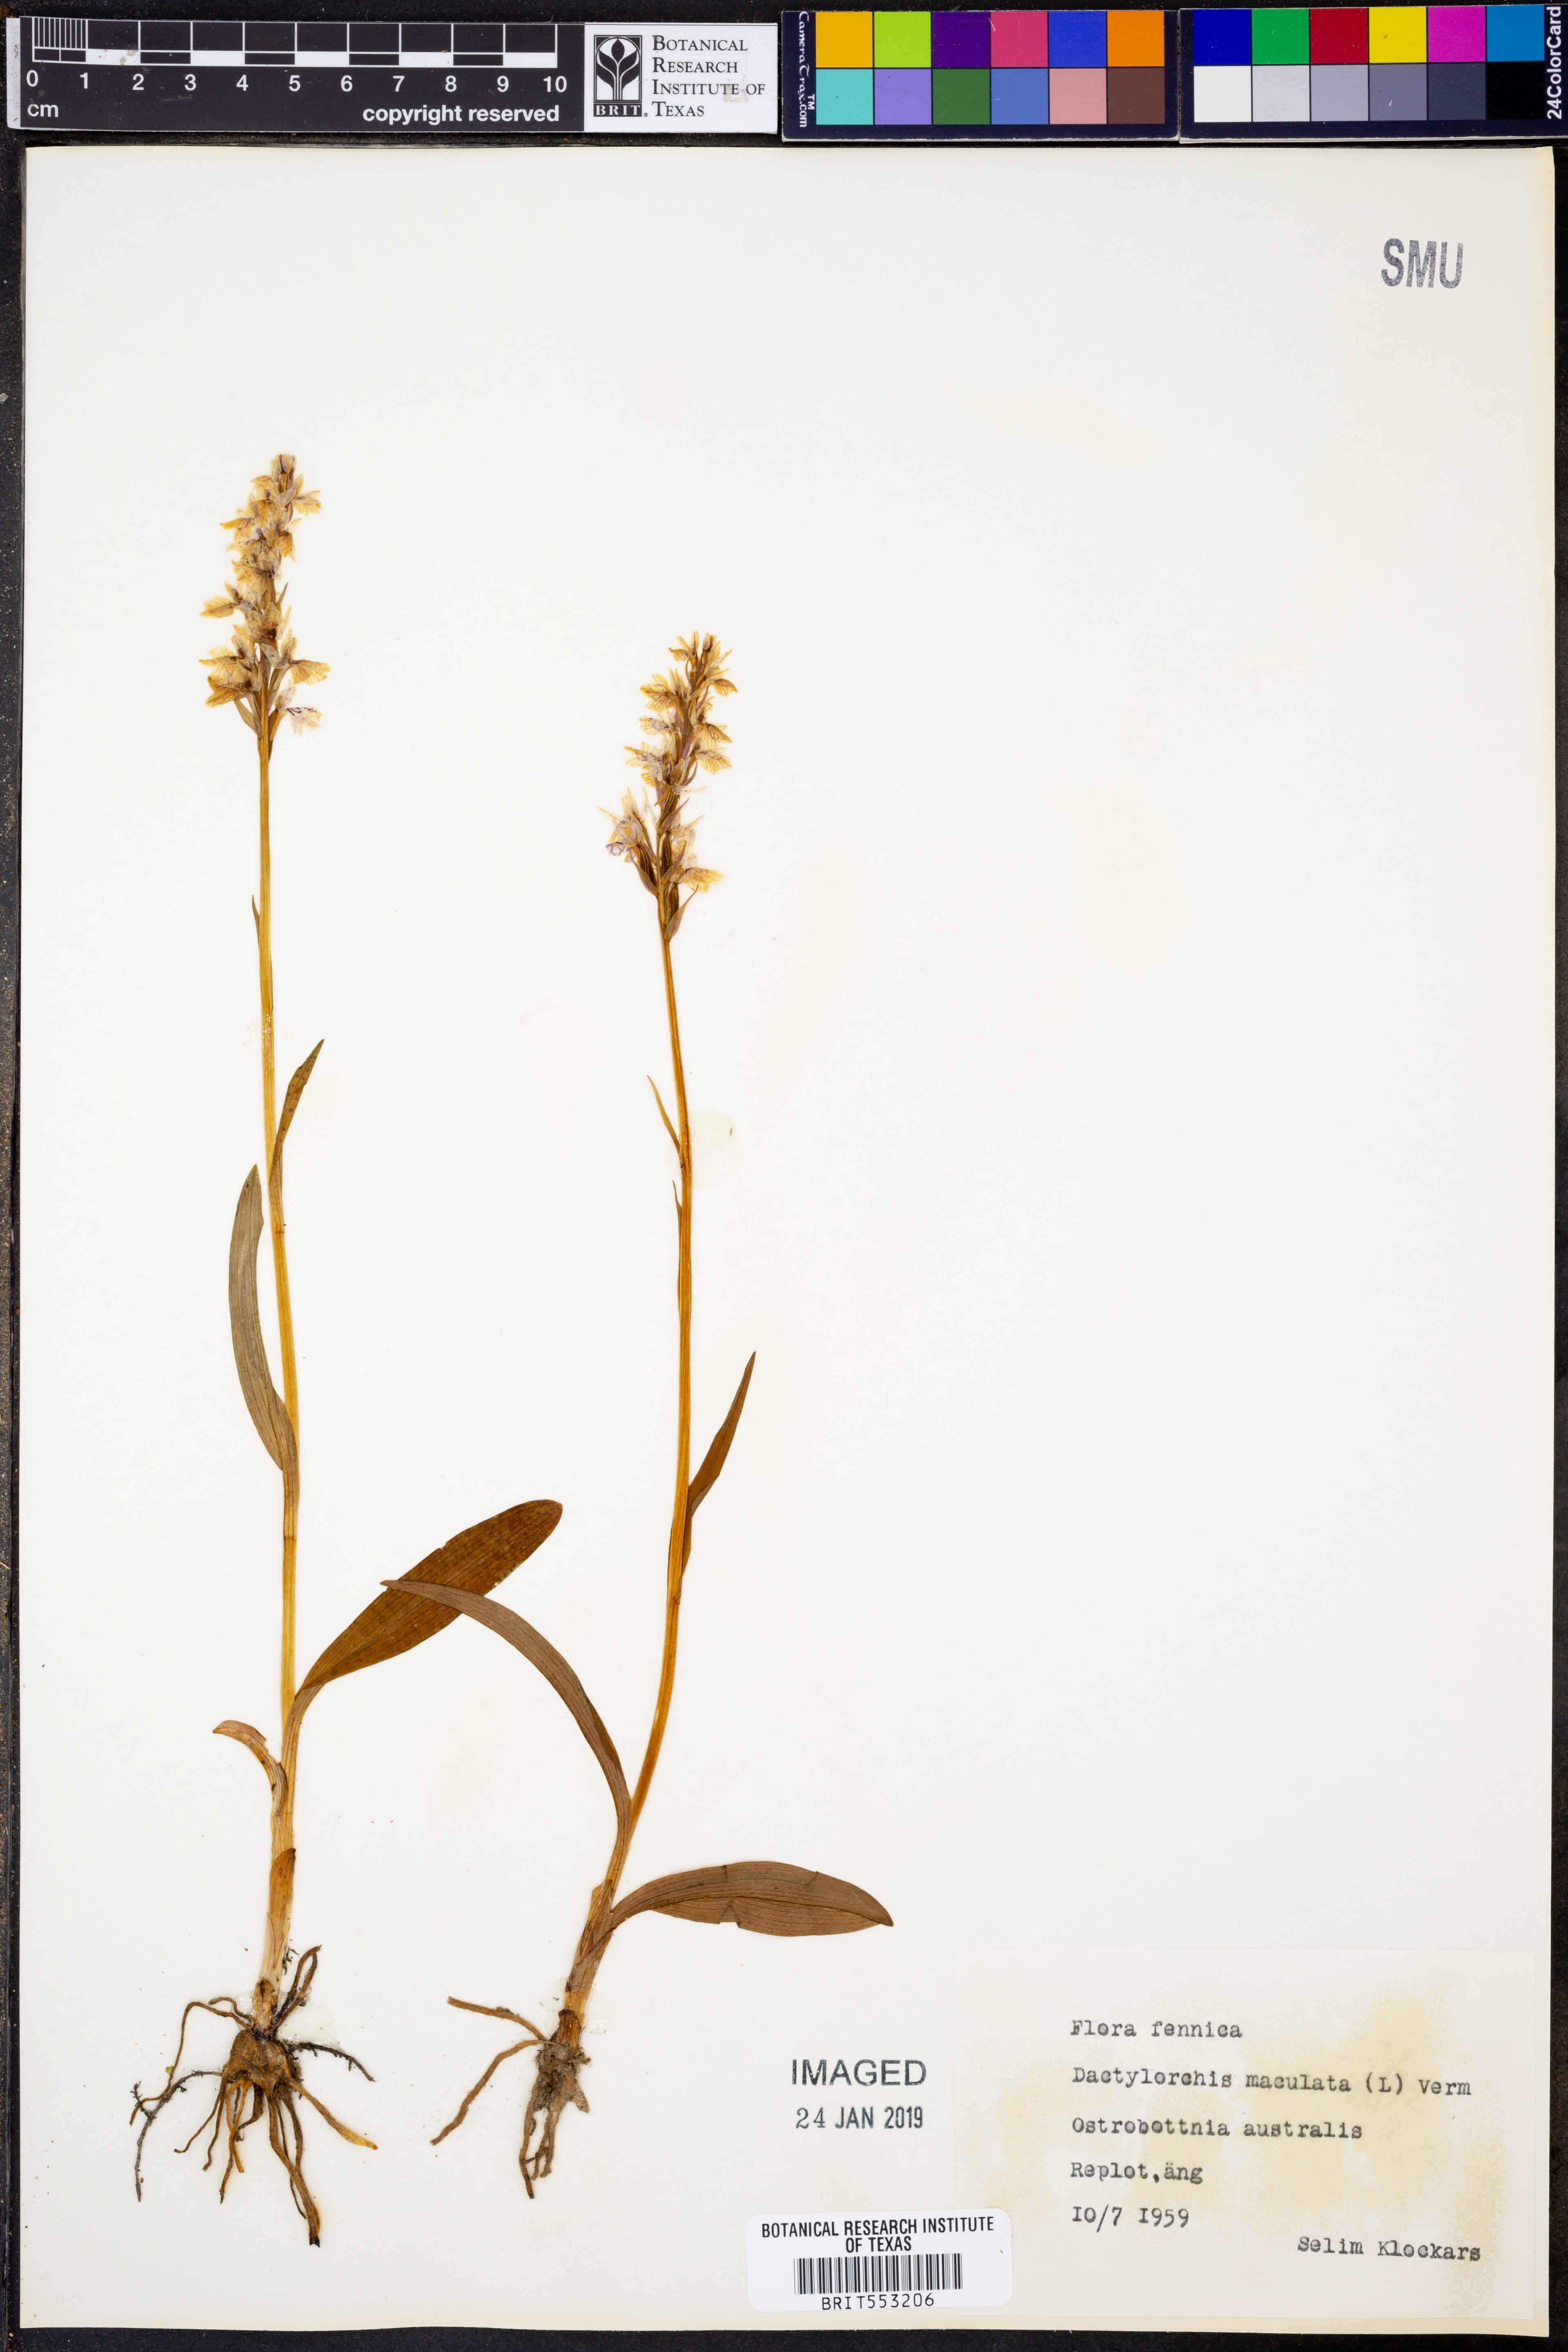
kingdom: Plantae
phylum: Tracheophyta
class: Liliopsida
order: Asparagales
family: Orchidaceae
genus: Dactylorhiza
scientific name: Dactylorhiza maculata
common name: Heath spotted-orchid
